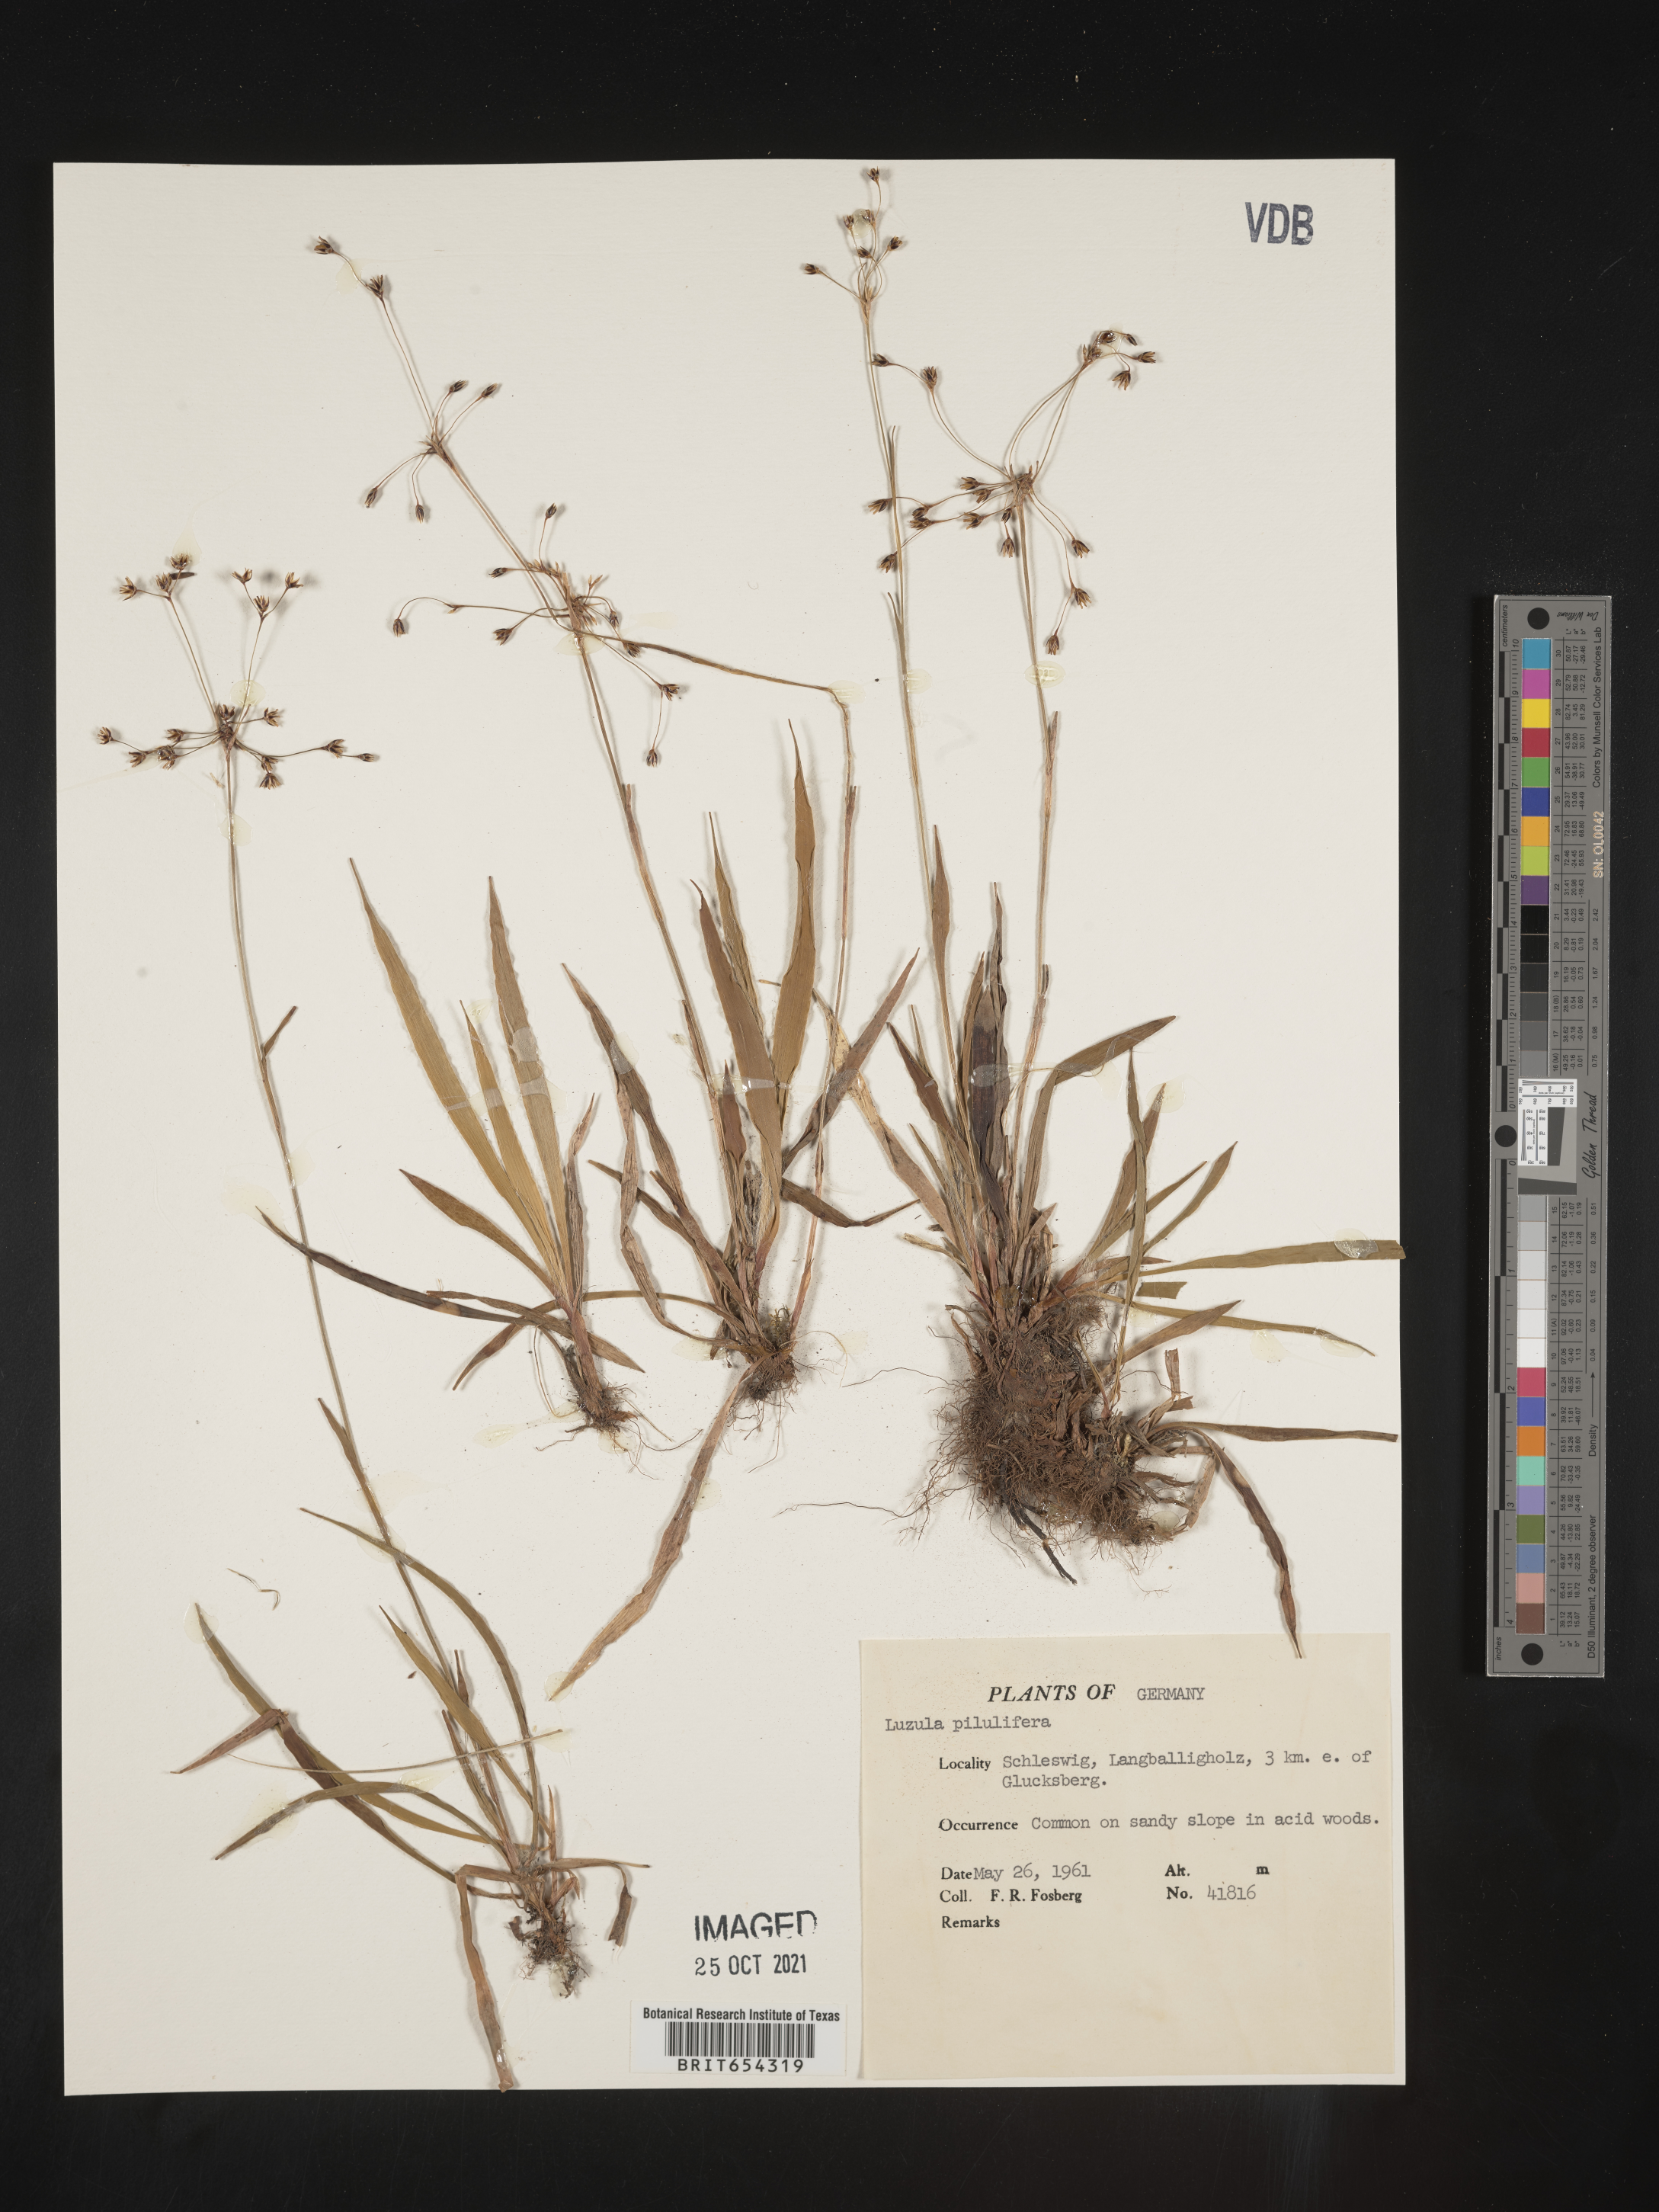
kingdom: Plantae
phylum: Tracheophyta
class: Liliopsida
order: Poales
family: Juncaceae
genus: Luzula
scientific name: Luzula
